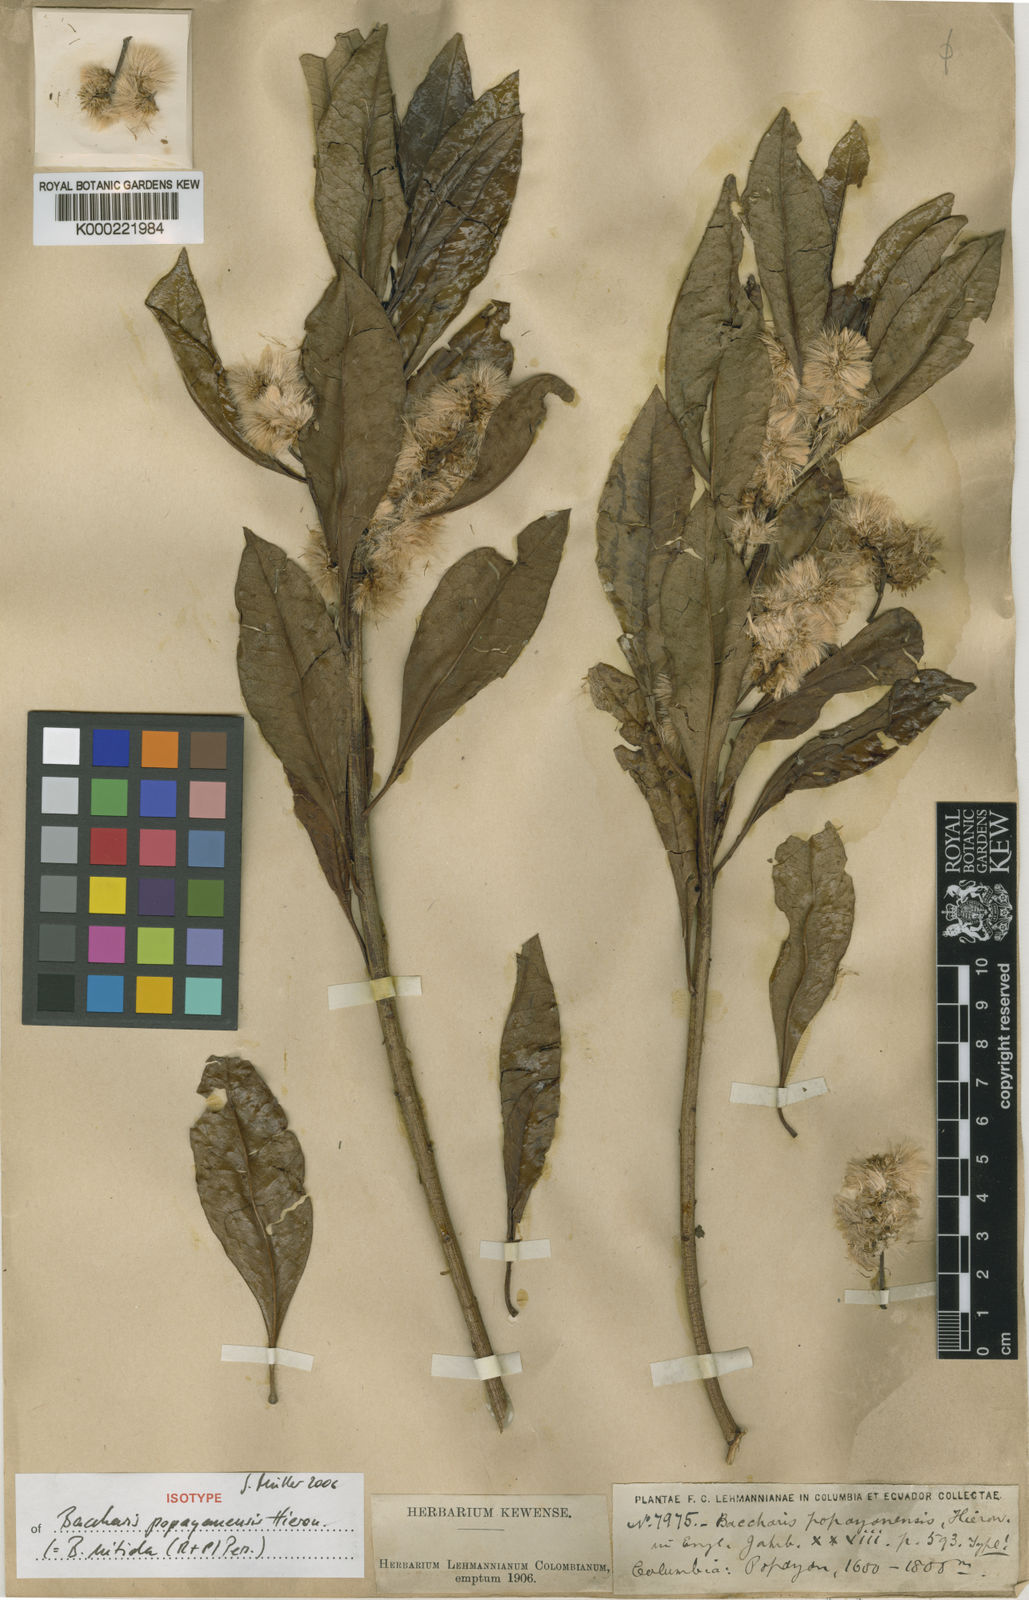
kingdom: Plantae
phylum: Tracheophyta
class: Magnoliopsida
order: Asterales
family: Asteraceae
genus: Baccharis
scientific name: Baccharis nitida
